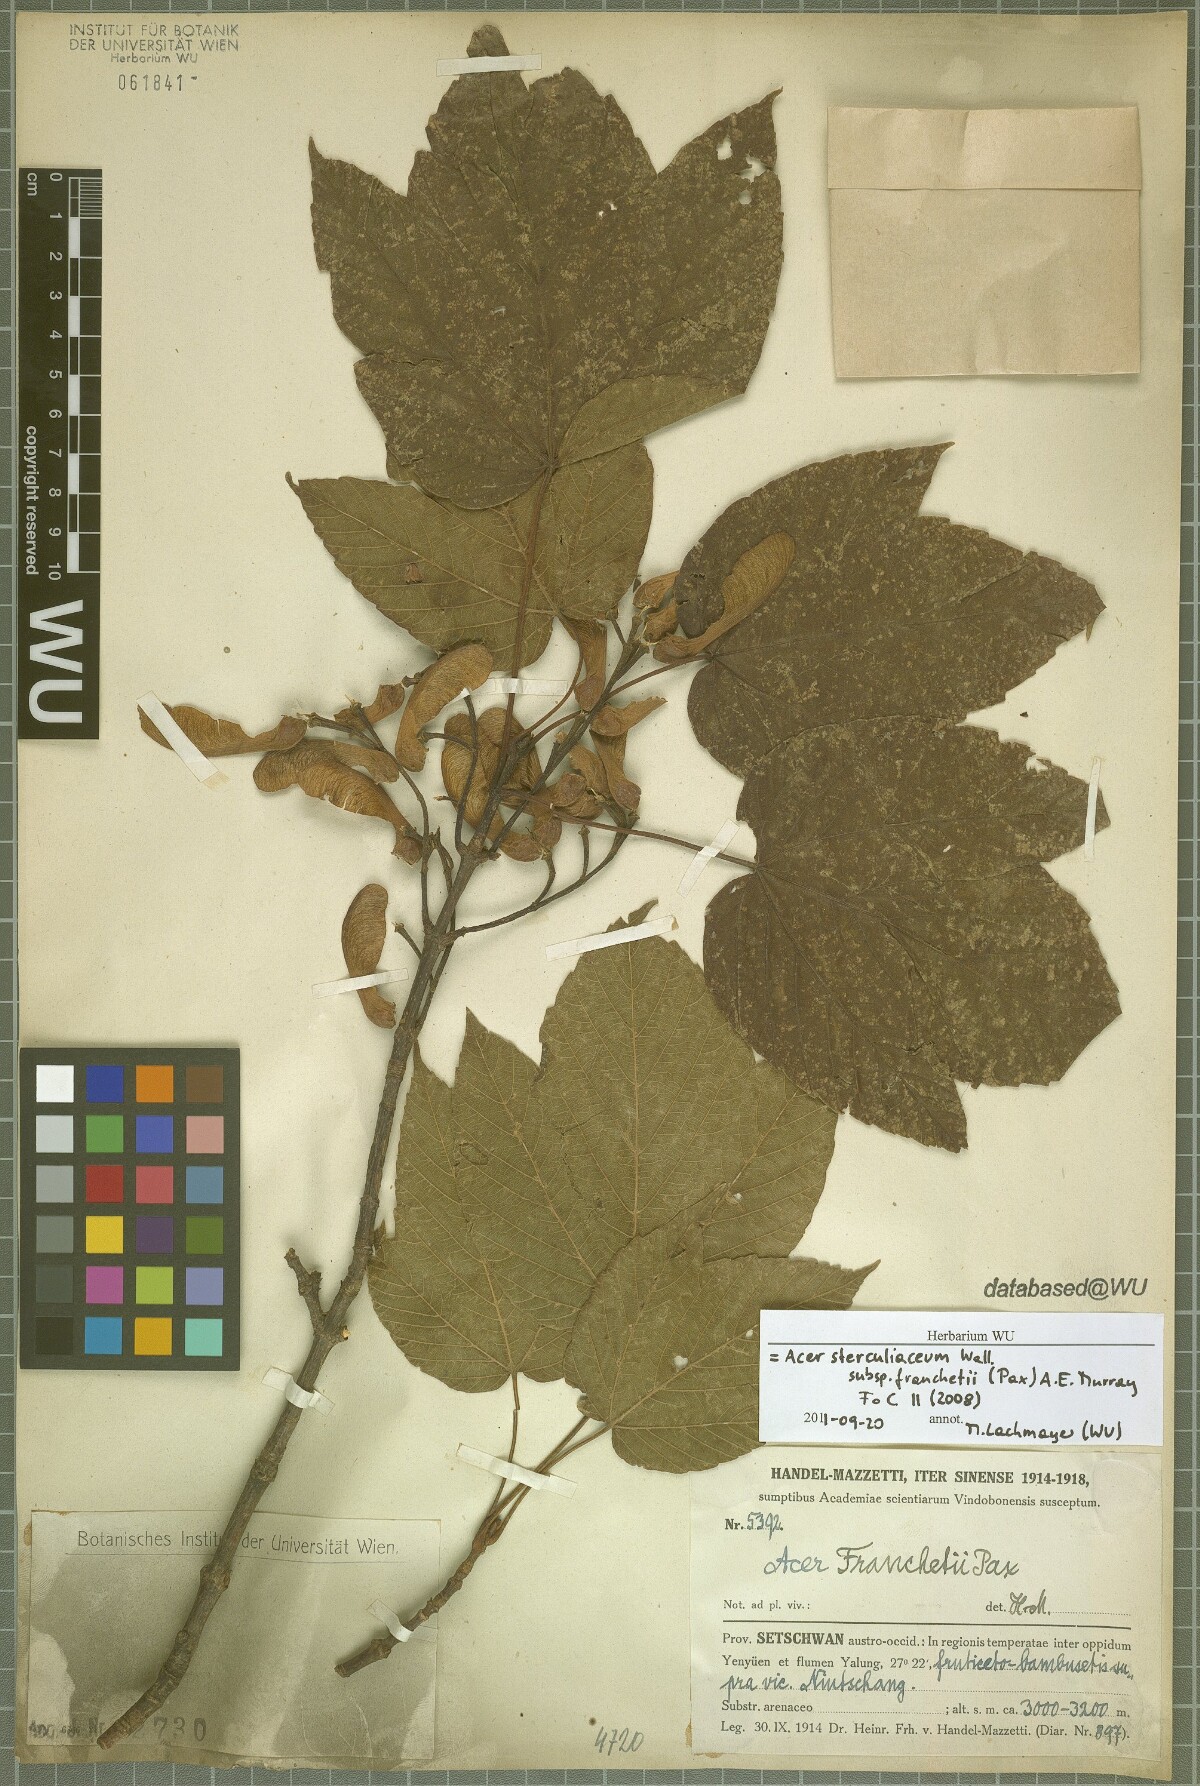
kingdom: Plantae
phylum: Tracheophyta
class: Magnoliopsida
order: Sapindales
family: Sapindaceae
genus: Acer
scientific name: Acer sterculiaceum
